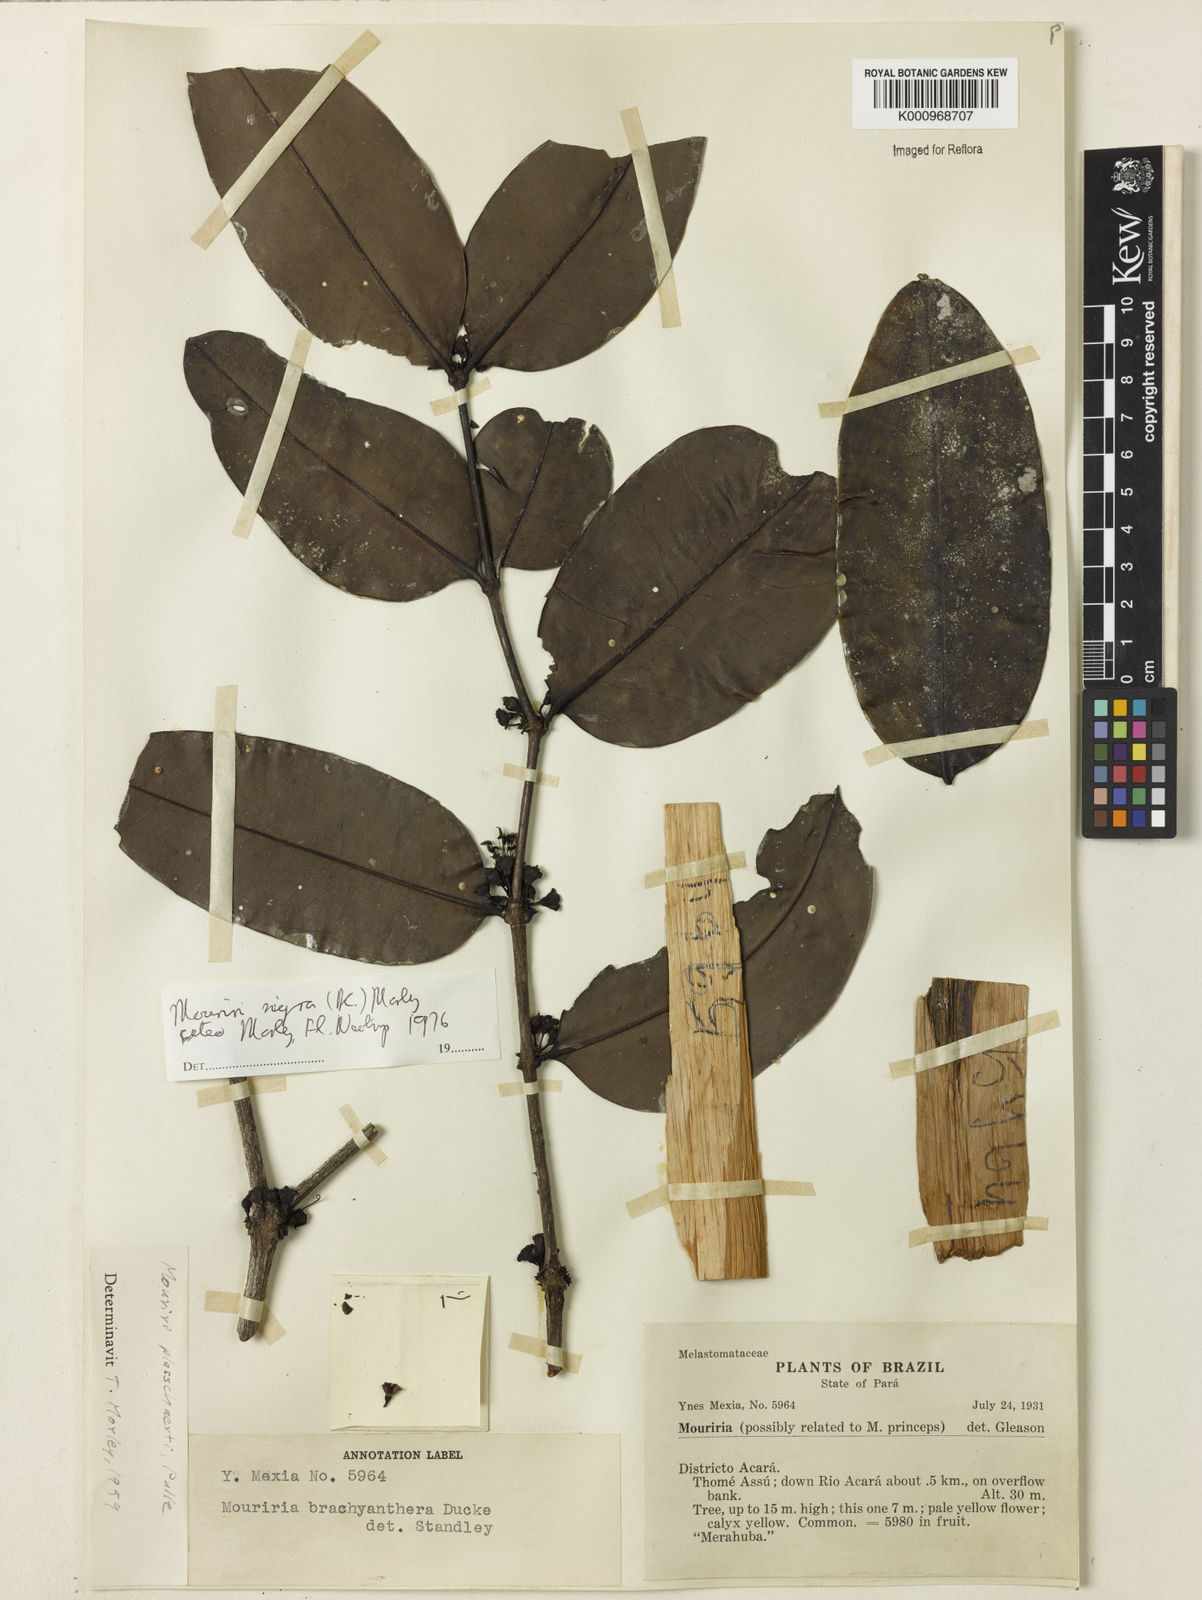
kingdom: Plantae
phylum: Tracheophyta
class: Magnoliopsida
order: Myrtales
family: Melastomataceae
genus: Mouriri
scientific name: Mouriri nigra
